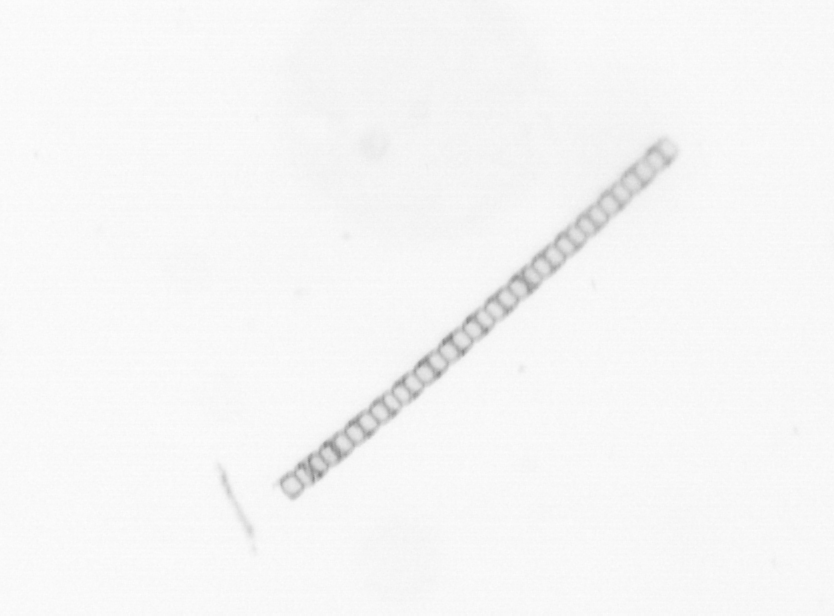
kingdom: Chromista
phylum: Ochrophyta
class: Bacillariophyceae
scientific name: Bacillariophyceae
